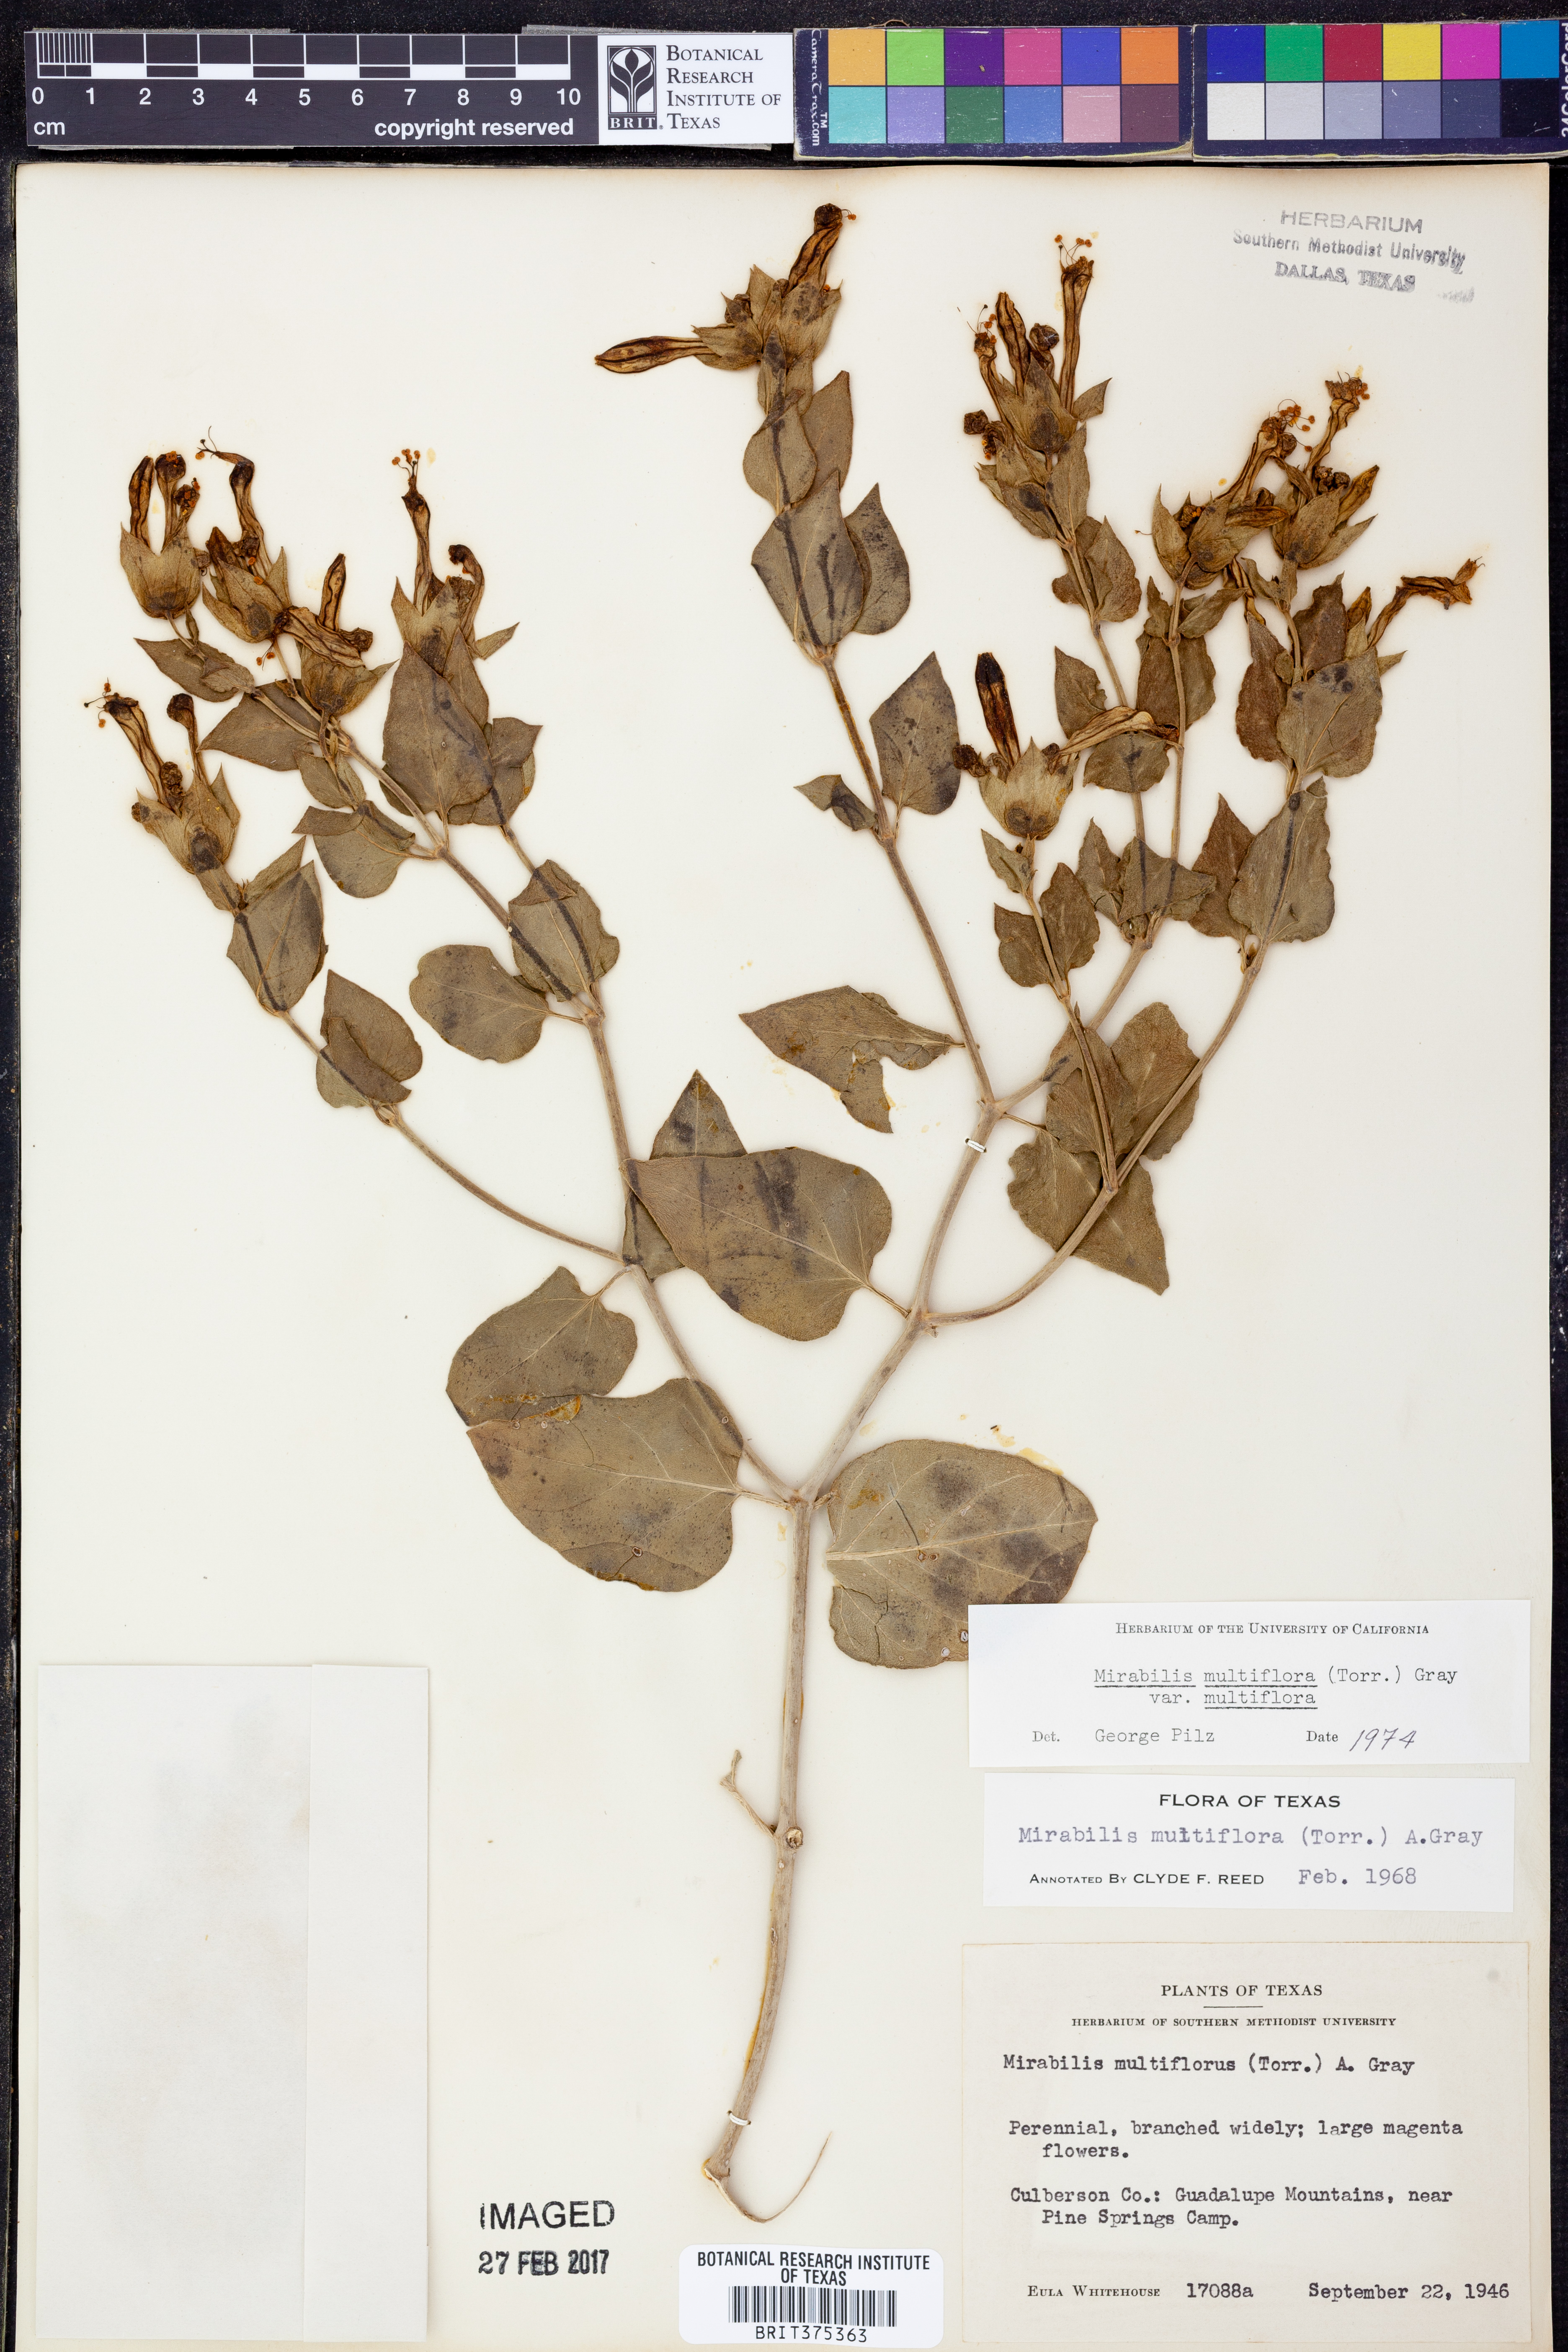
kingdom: Plantae
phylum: Tracheophyta
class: Magnoliopsida
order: Caryophyllales
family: Nyctaginaceae
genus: Mirabilis
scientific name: Mirabilis multiflora
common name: Froebel's four-o'clock
